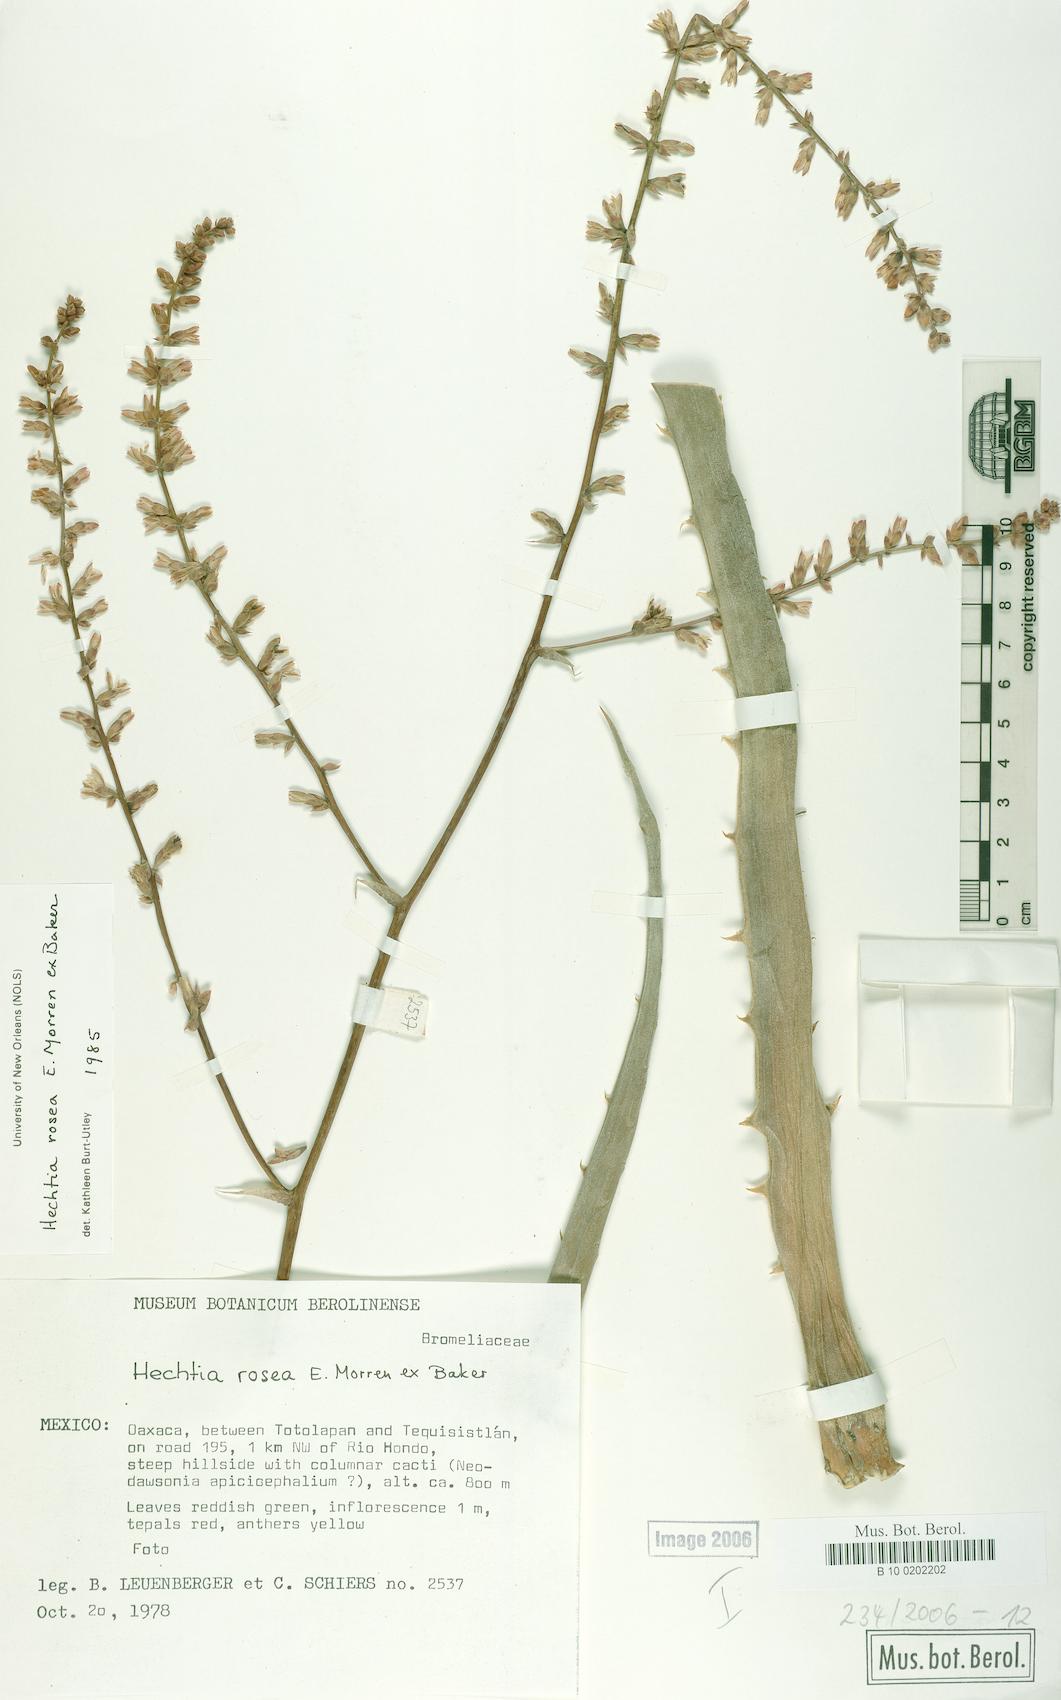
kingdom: Plantae
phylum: Tracheophyta
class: Liliopsida
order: Poales
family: Bromeliaceae
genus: Hechtia
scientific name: Hechtia rosea
